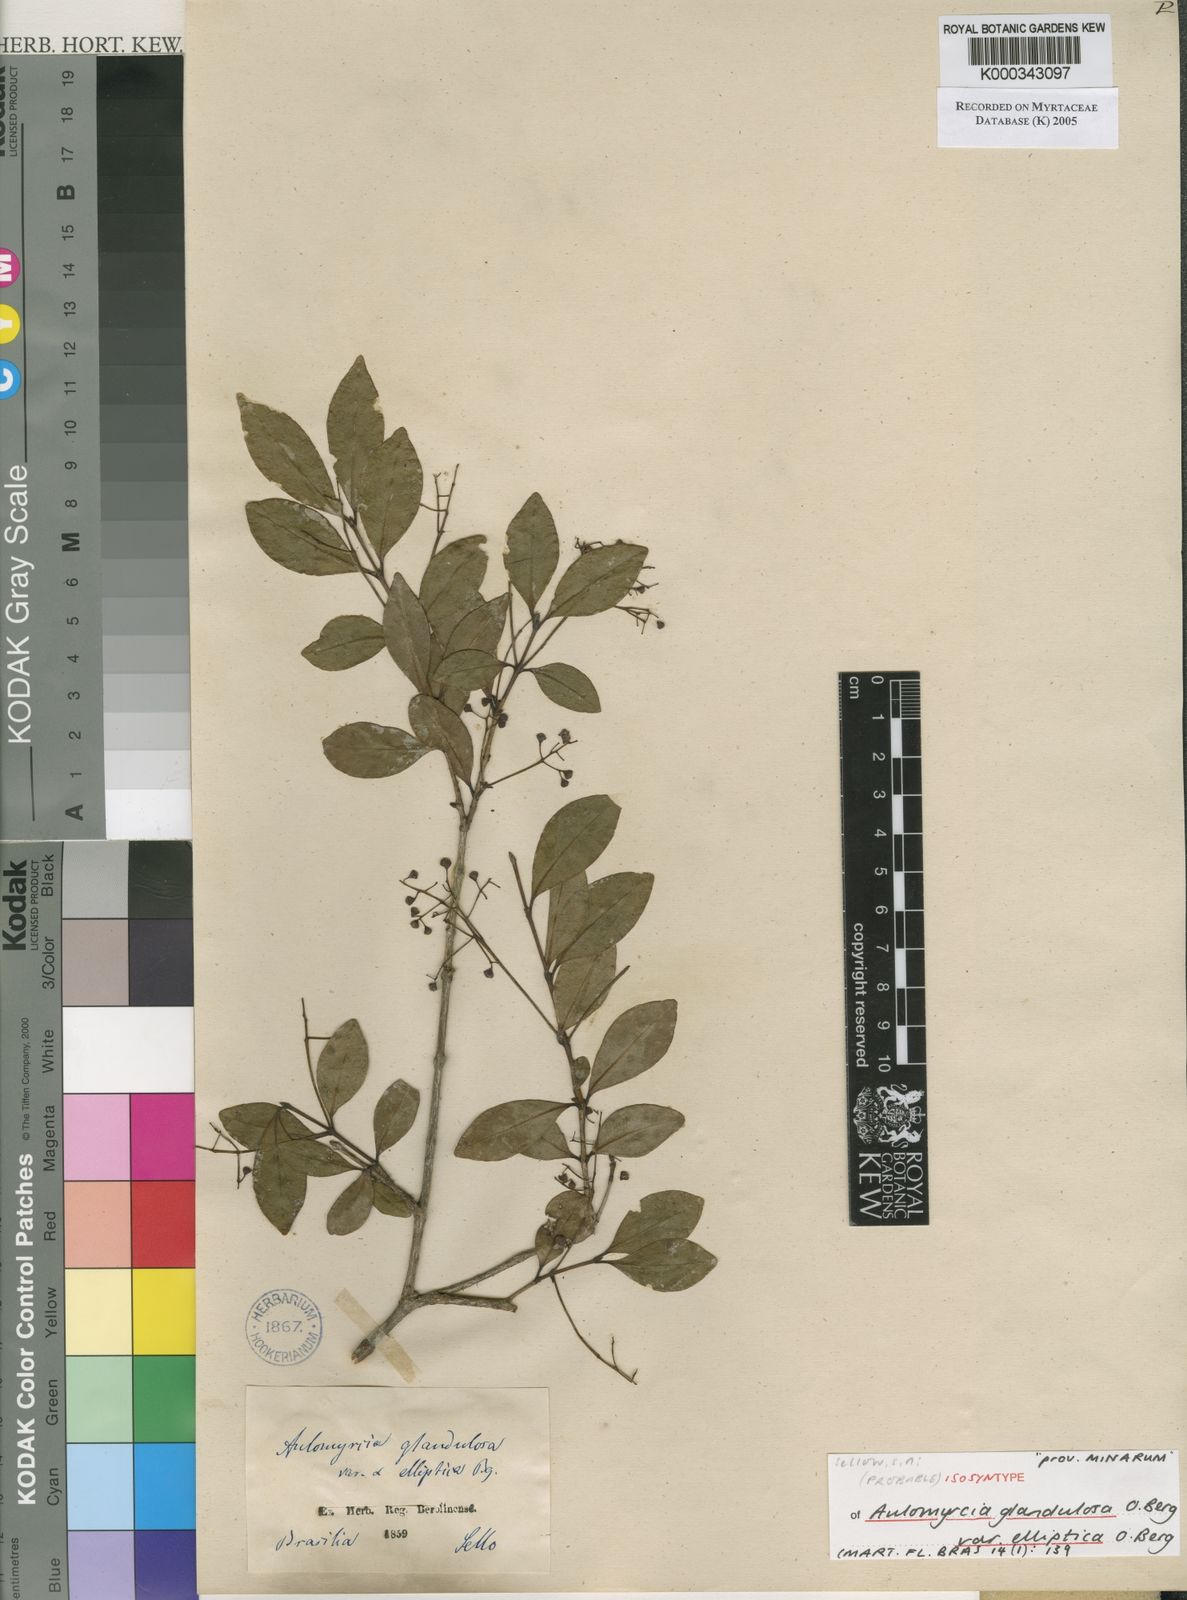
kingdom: Plantae
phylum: Tracheophyta
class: Magnoliopsida
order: Myrtales
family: Myrtaceae
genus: Myrcia
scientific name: Myrcia guianensis
